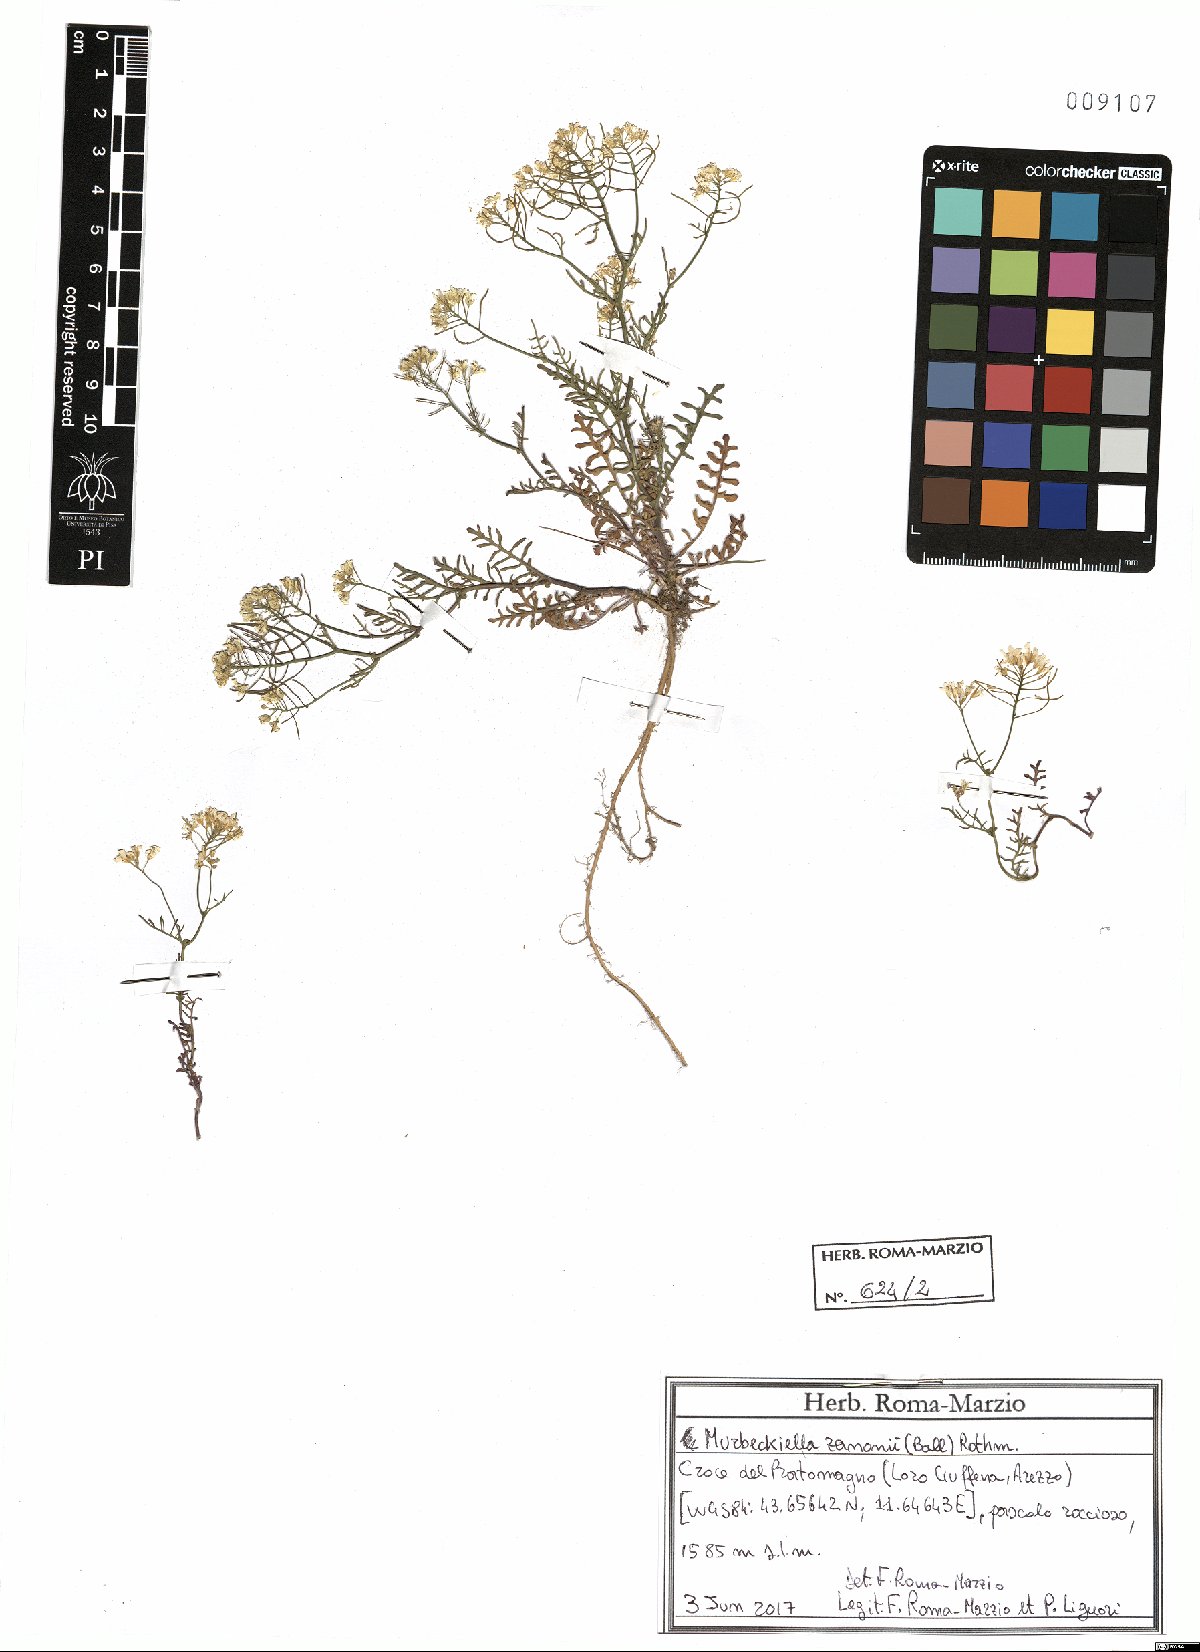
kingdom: Plantae
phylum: Tracheophyta
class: Magnoliopsida
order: Brassicales
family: Brassicaceae
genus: Murbeckiella
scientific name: Murbeckiella zanonii
